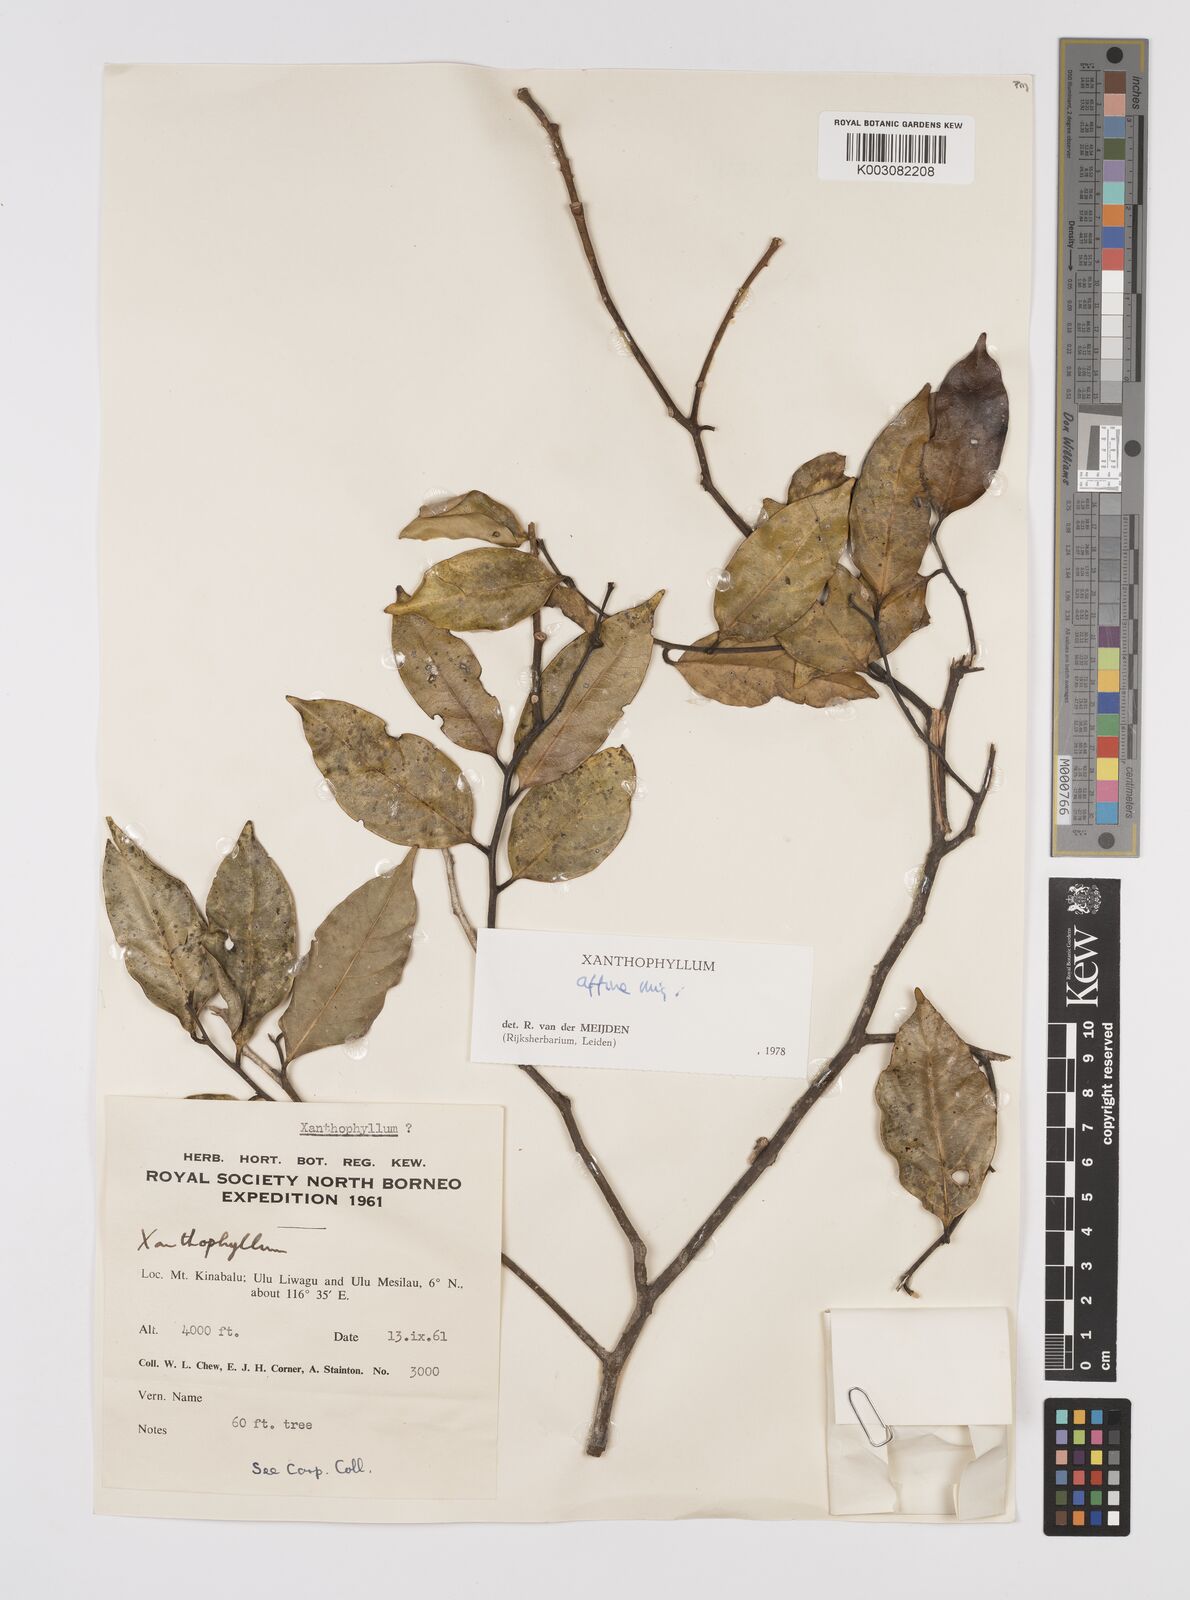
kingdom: Plantae
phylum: Tracheophyta
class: Magnoliopsida
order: Fabales
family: Polygalaceae
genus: Xanthophyllum
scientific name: Xanthophyllum flavescens
